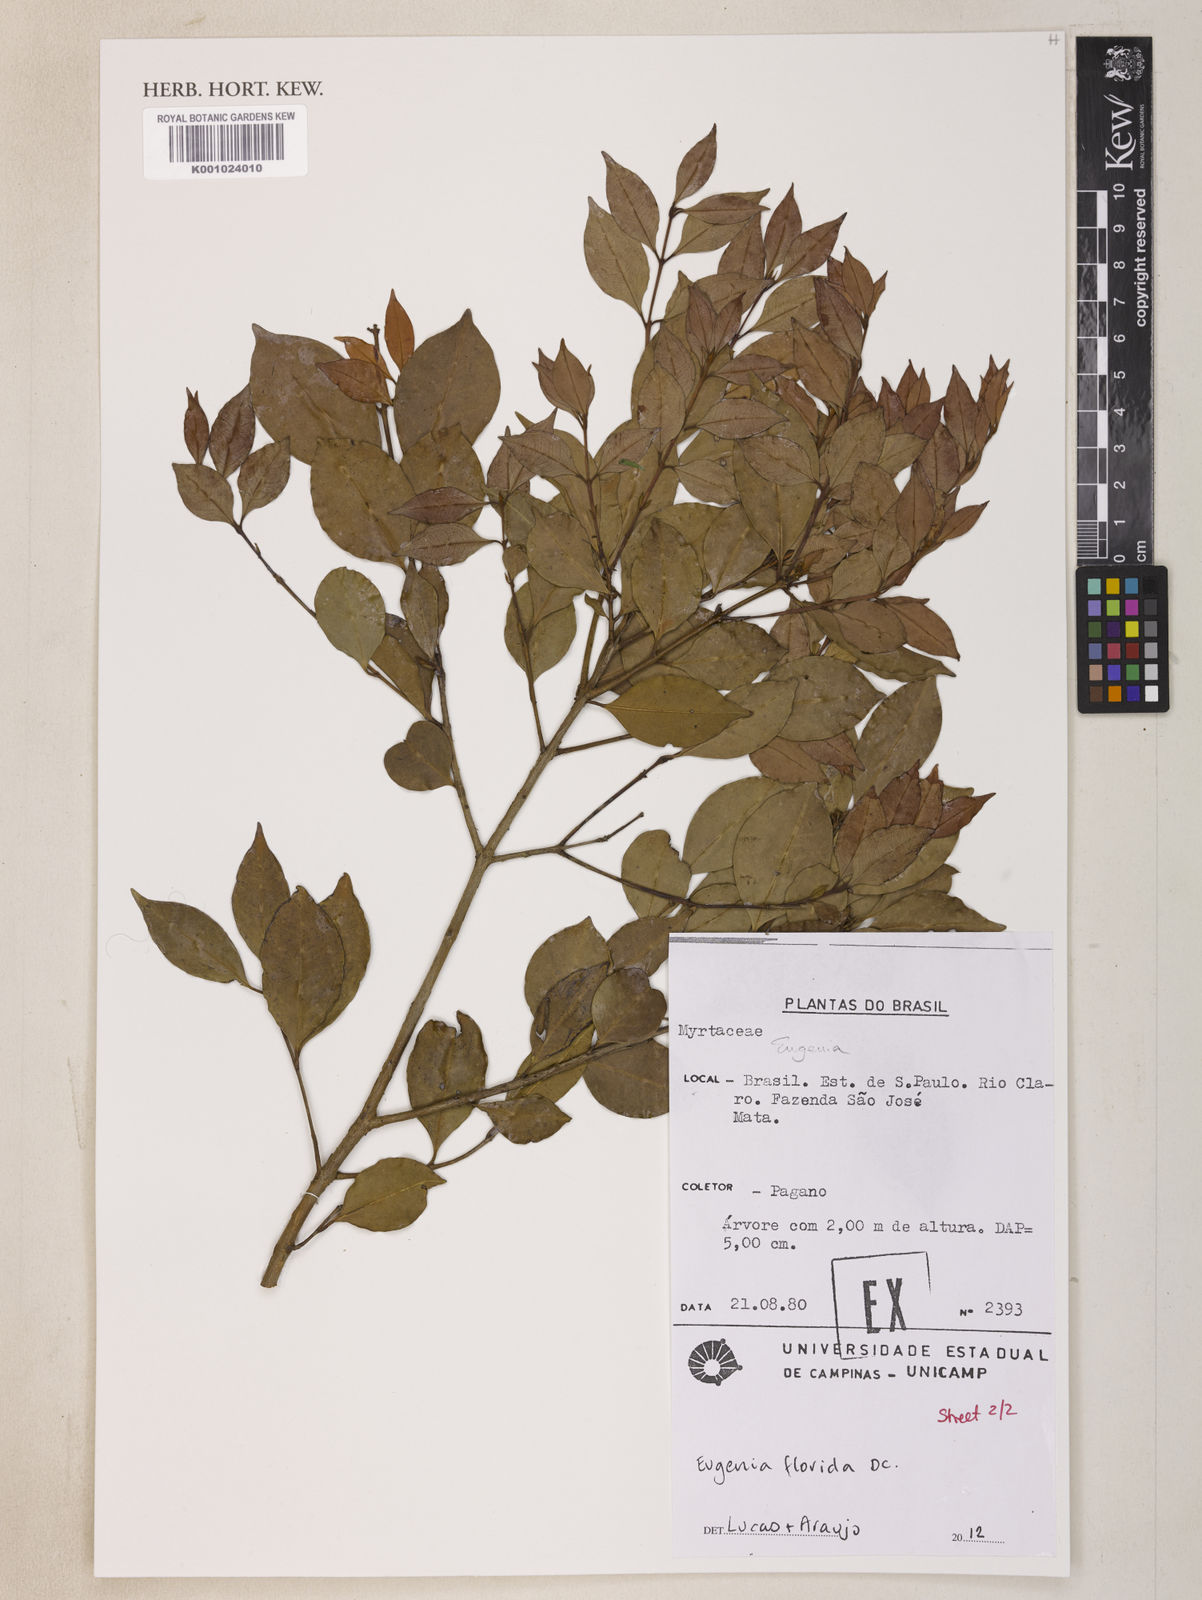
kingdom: Plantae
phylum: Tracheophyta
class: Magnoliopsida
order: Myrtales
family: Myrtaceae
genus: Eugenia
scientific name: Eugenia florida
